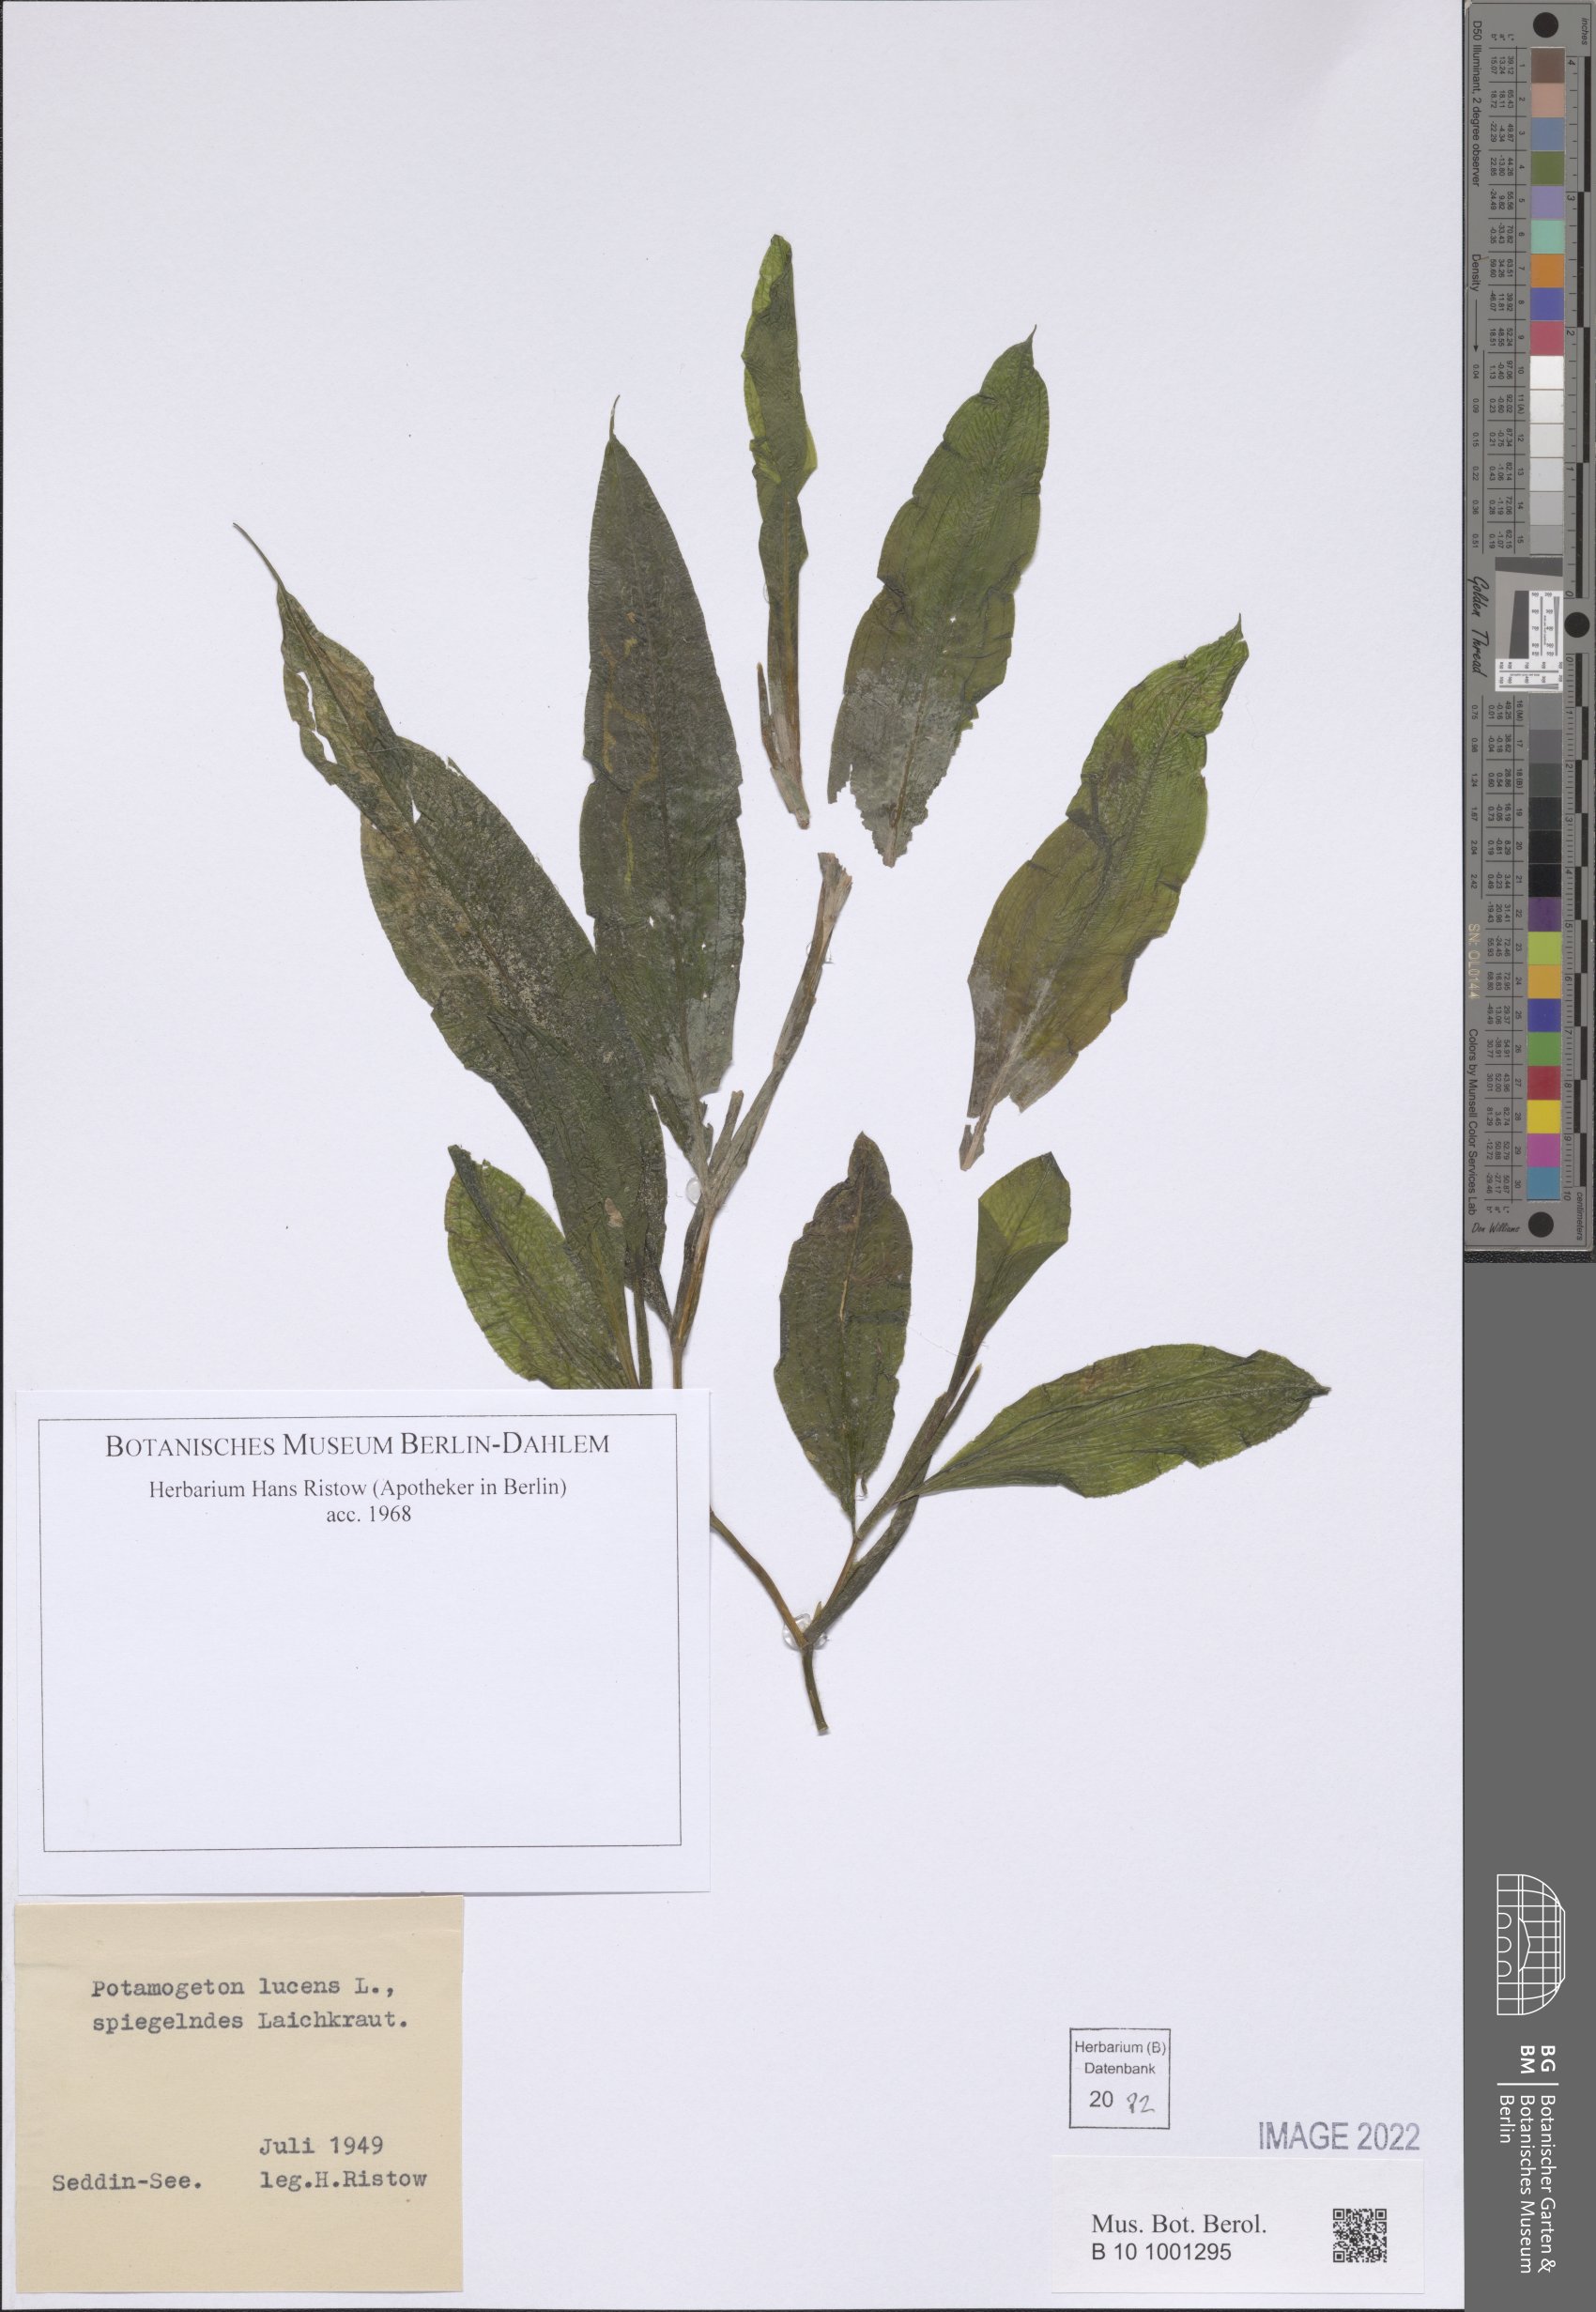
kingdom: Plantae
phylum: Tracheophyta
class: Liliopsida
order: Alismatales
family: Potamogetonaceae
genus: Potamogeton
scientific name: Potamogeton lucens
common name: Shining pondweed
